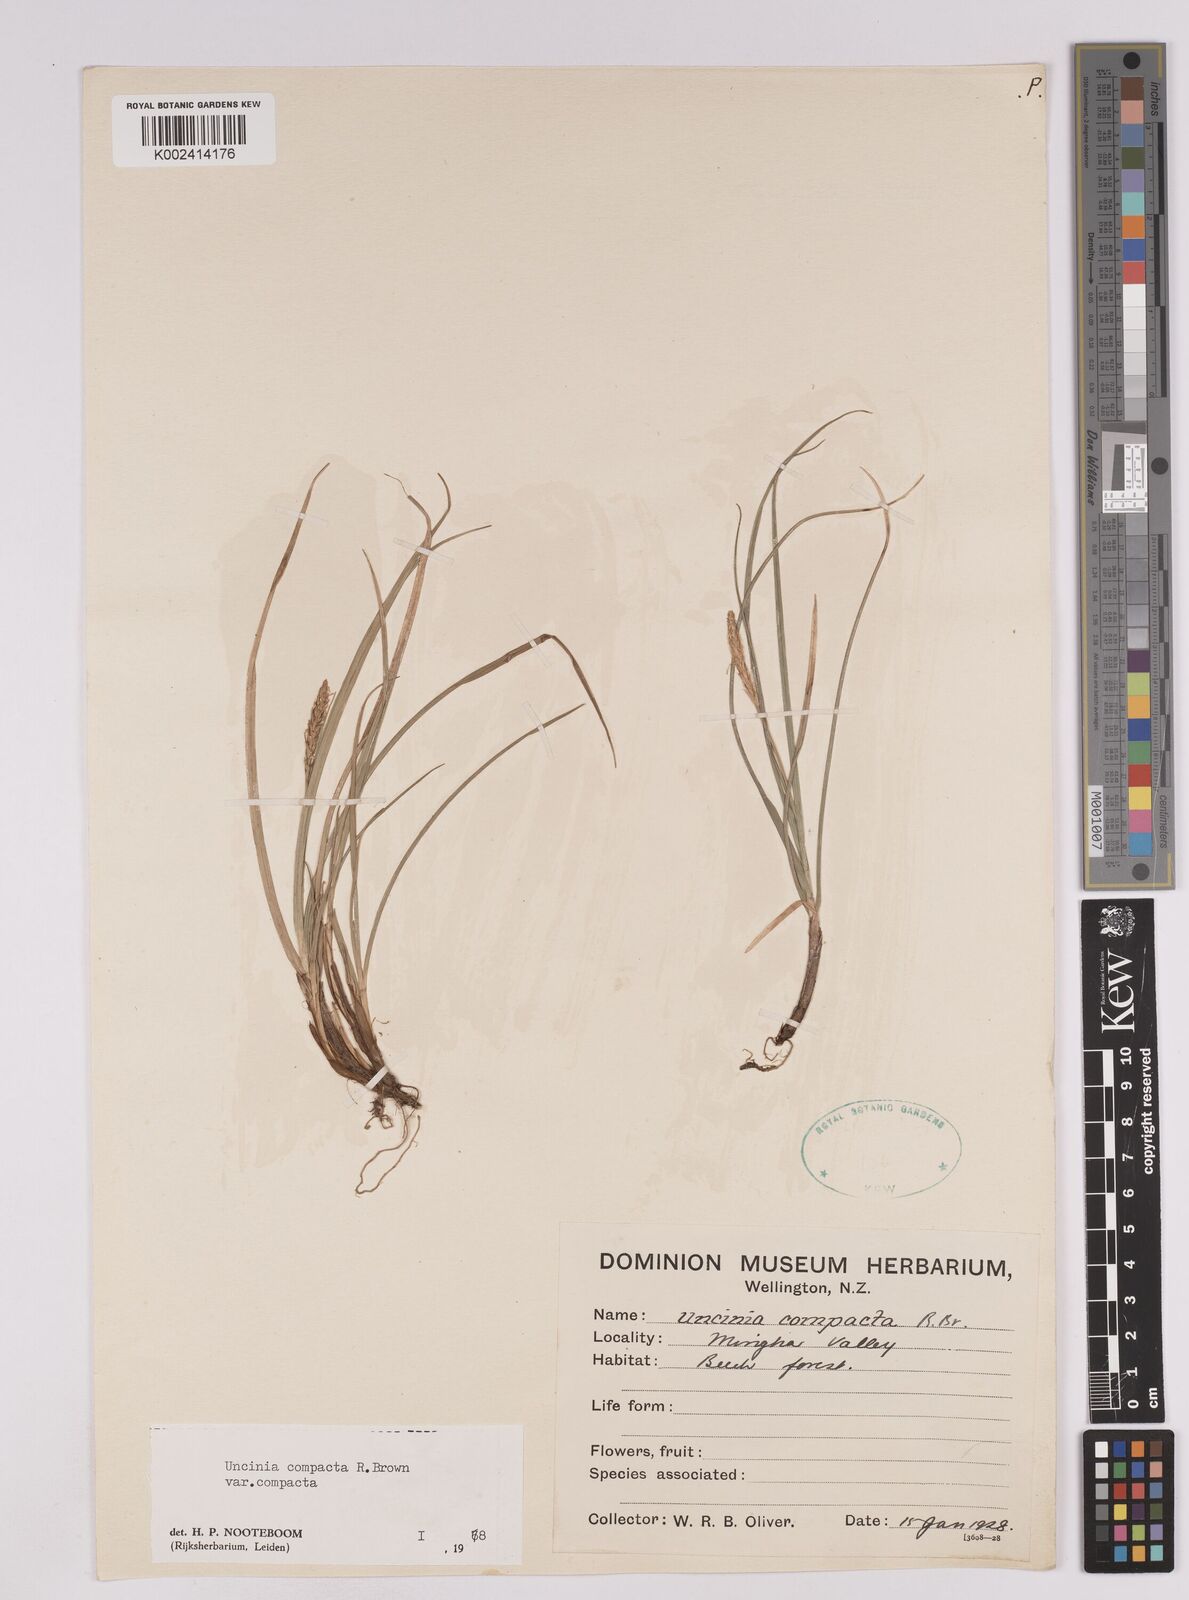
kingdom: Plantae
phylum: Tracheophyta
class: Liliopsida
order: Poales
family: Cyperaceae
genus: Carex
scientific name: Carex austrocompacta
